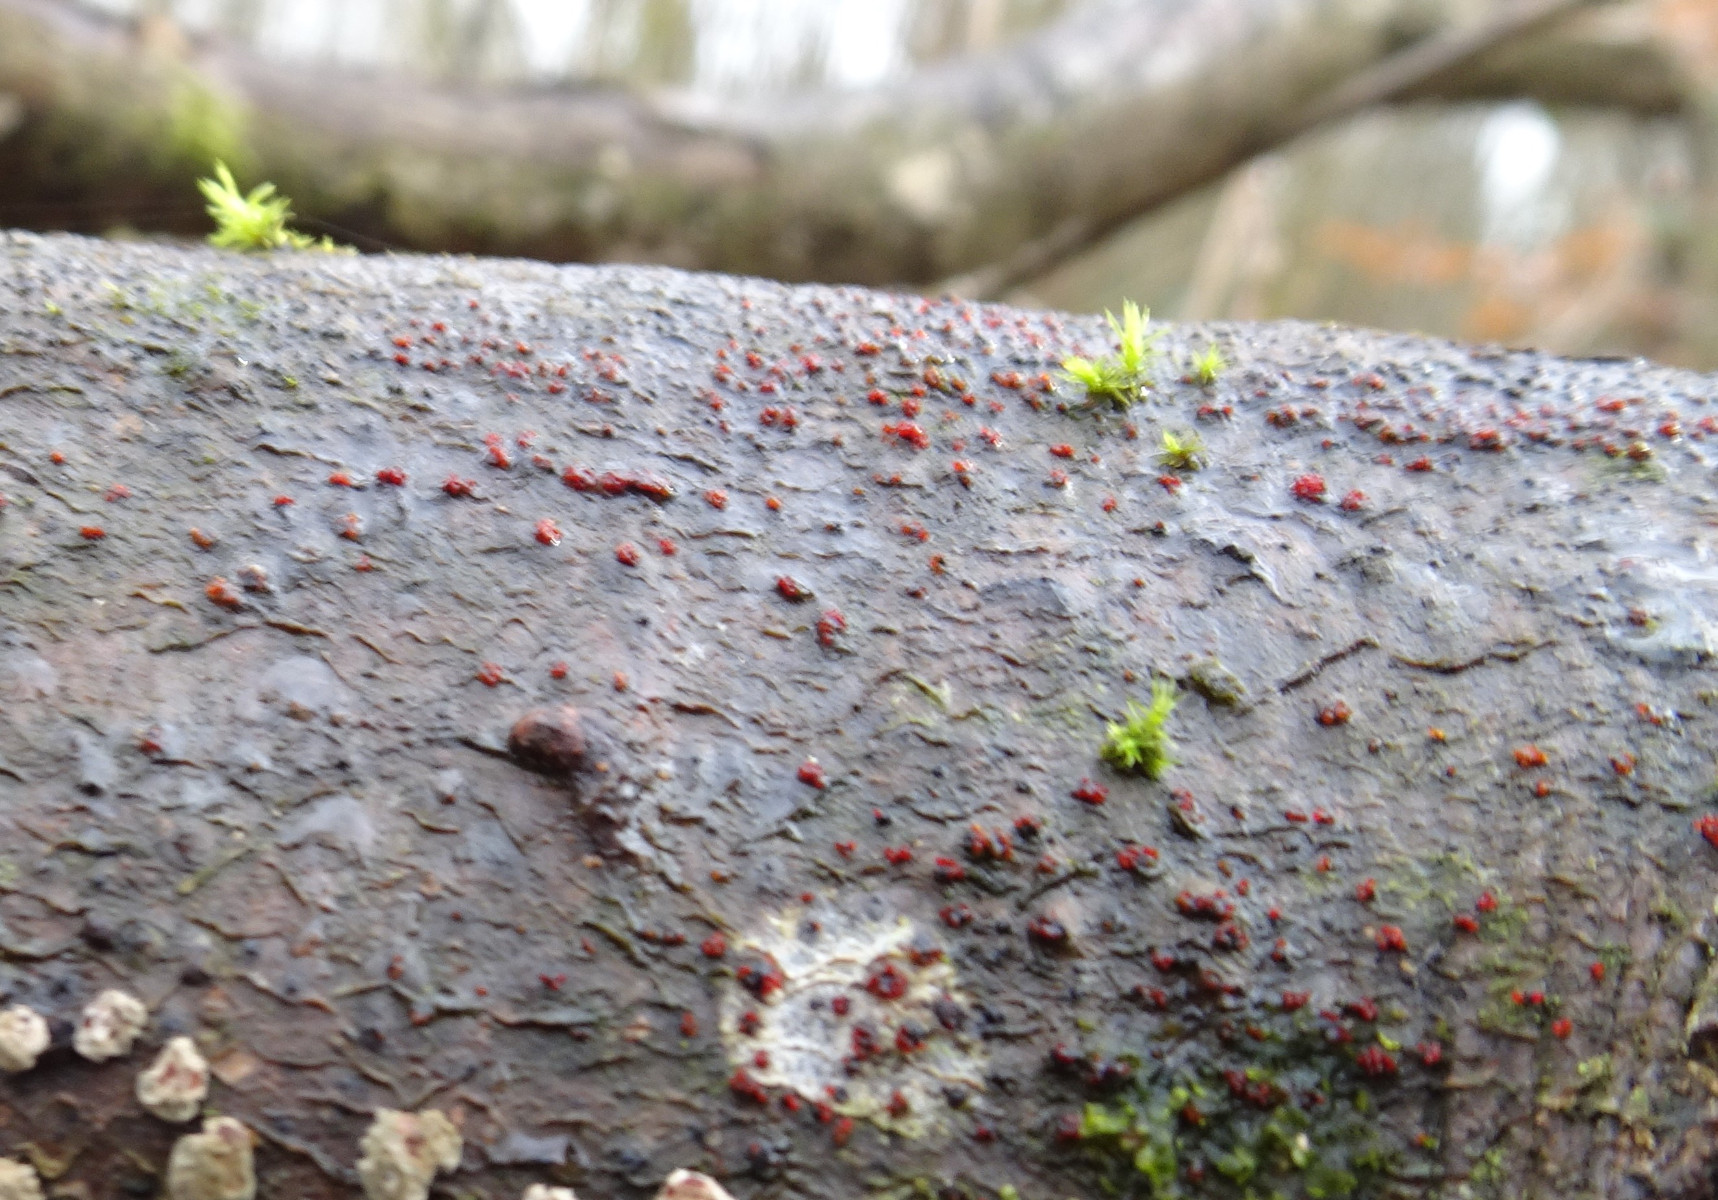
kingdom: Fungi
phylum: Ascomycota
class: Sordariomycetes
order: Hypocreales
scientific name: Hypocreales
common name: kødkerneordenen
